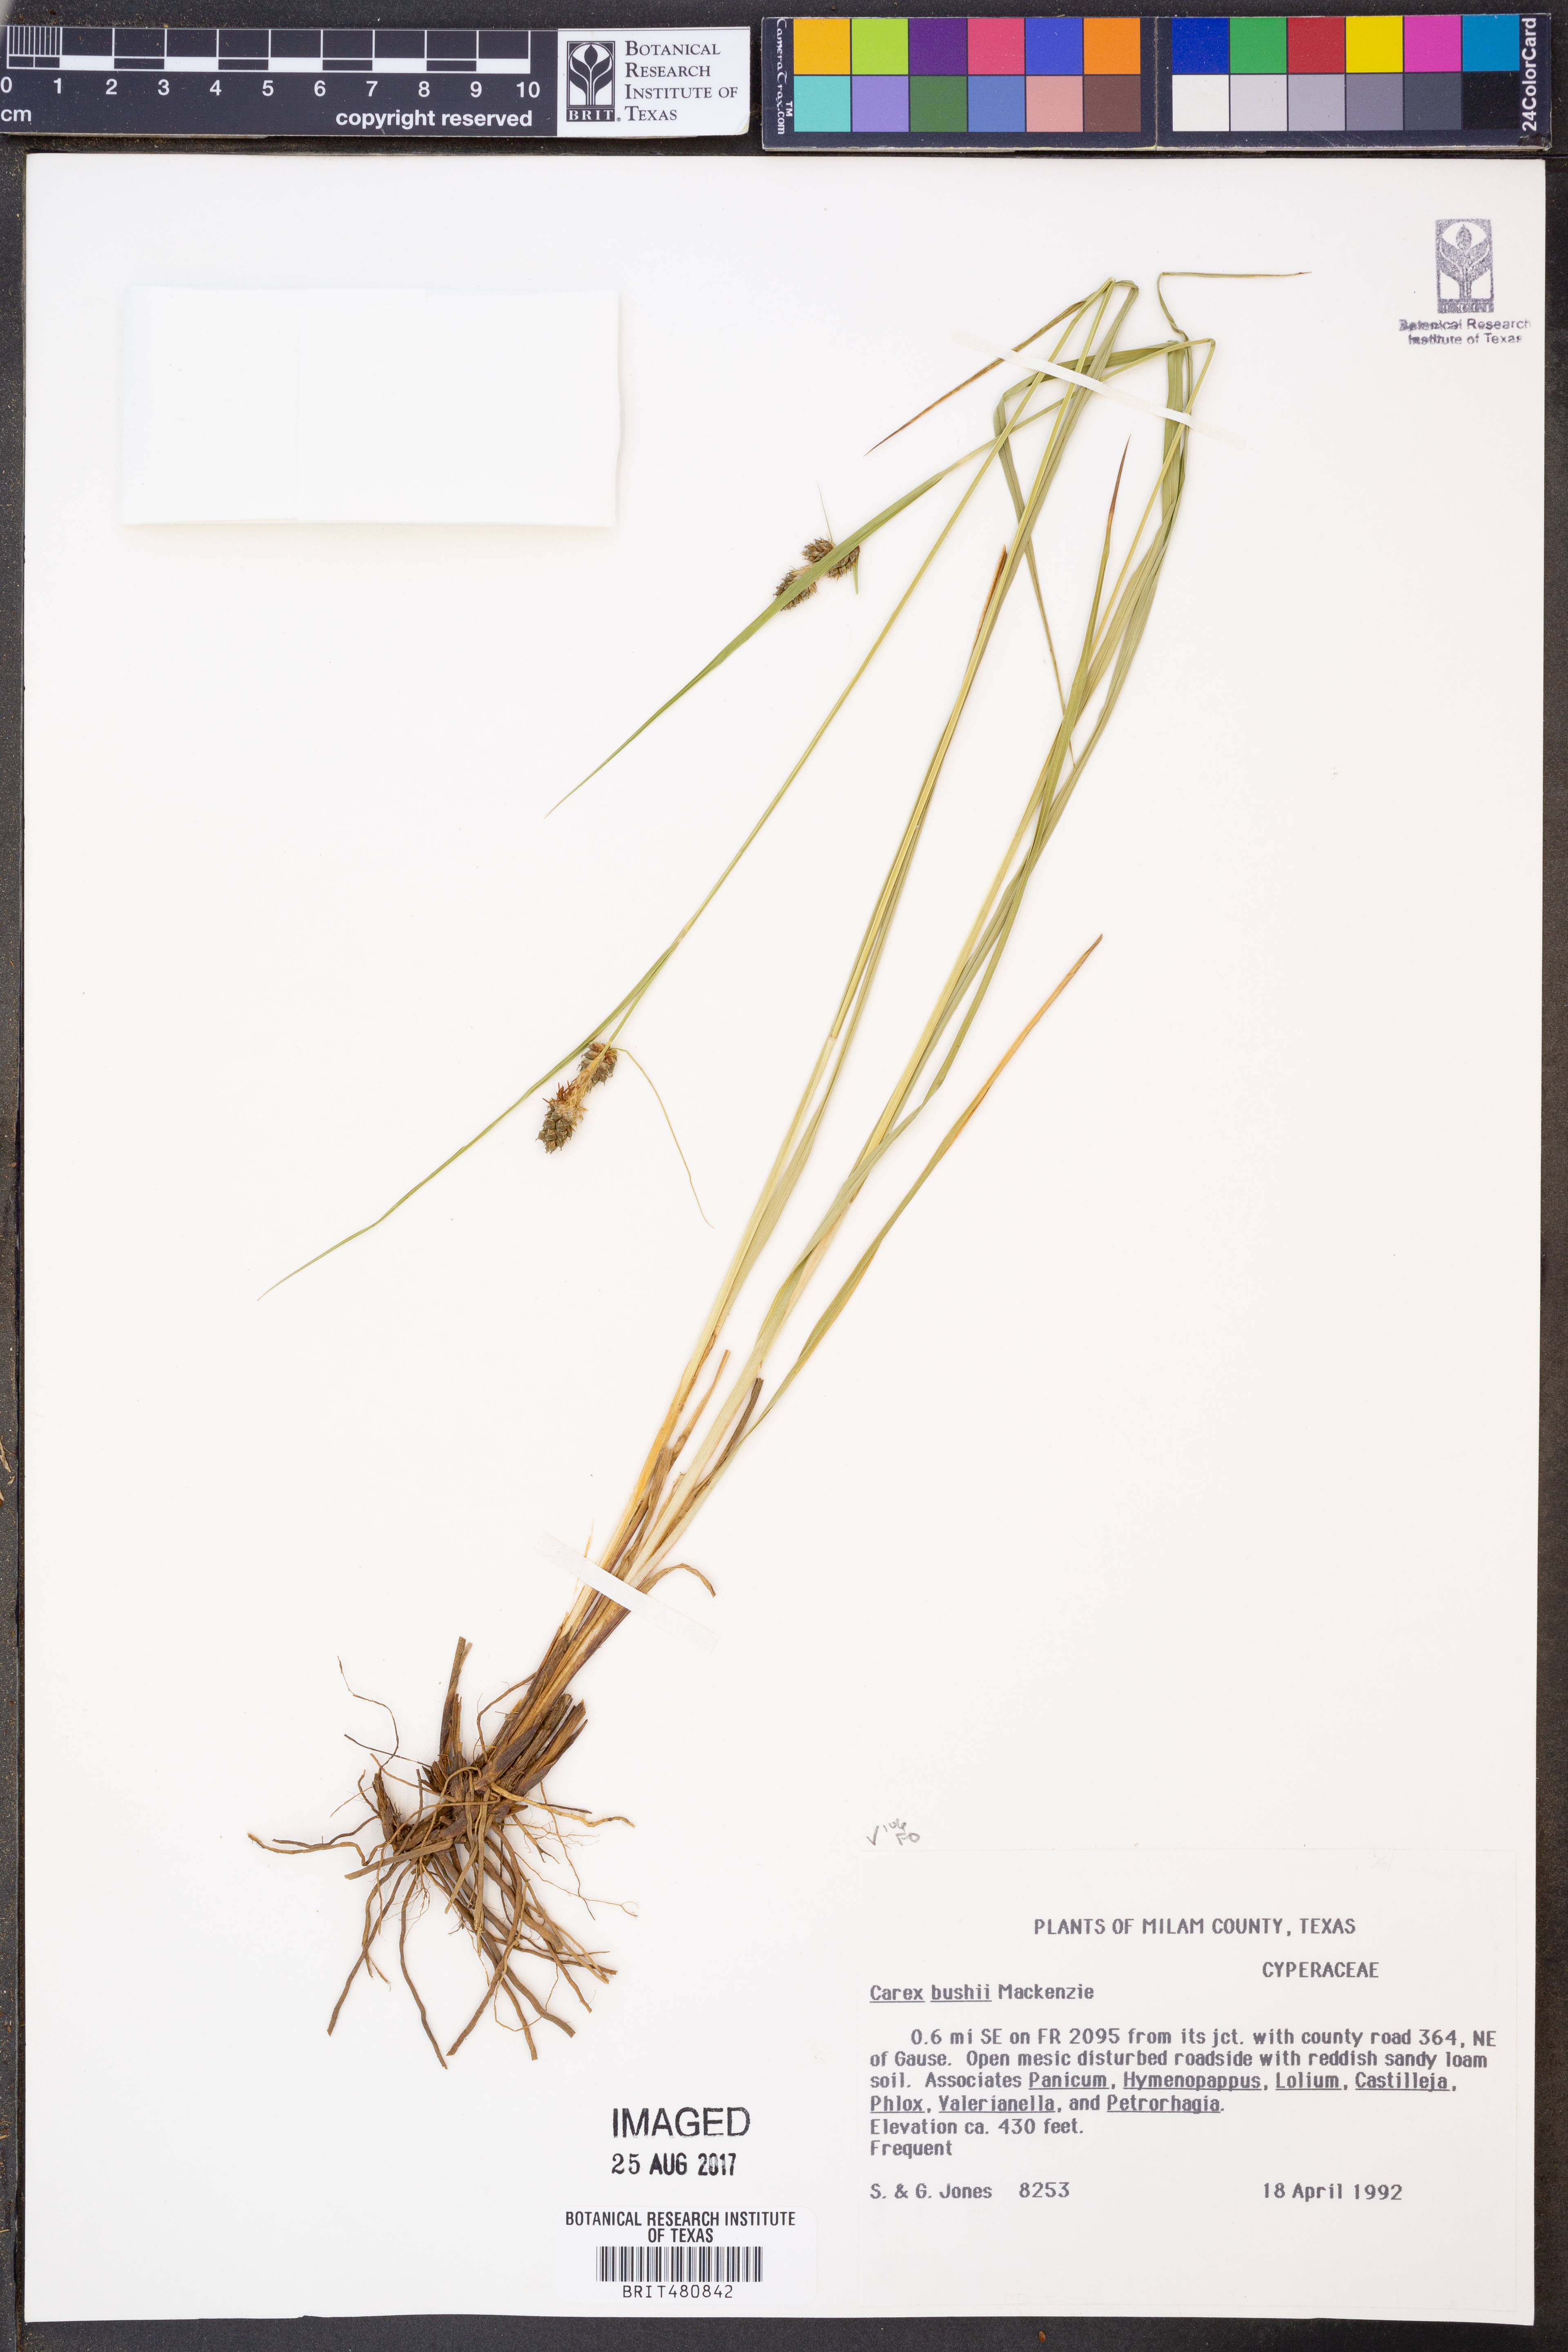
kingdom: Plantae
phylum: Tracheophyta
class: Liliopsida
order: Poales
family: Cyperaceae
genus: Carex
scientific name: Carex bushii
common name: Bush's sedge
